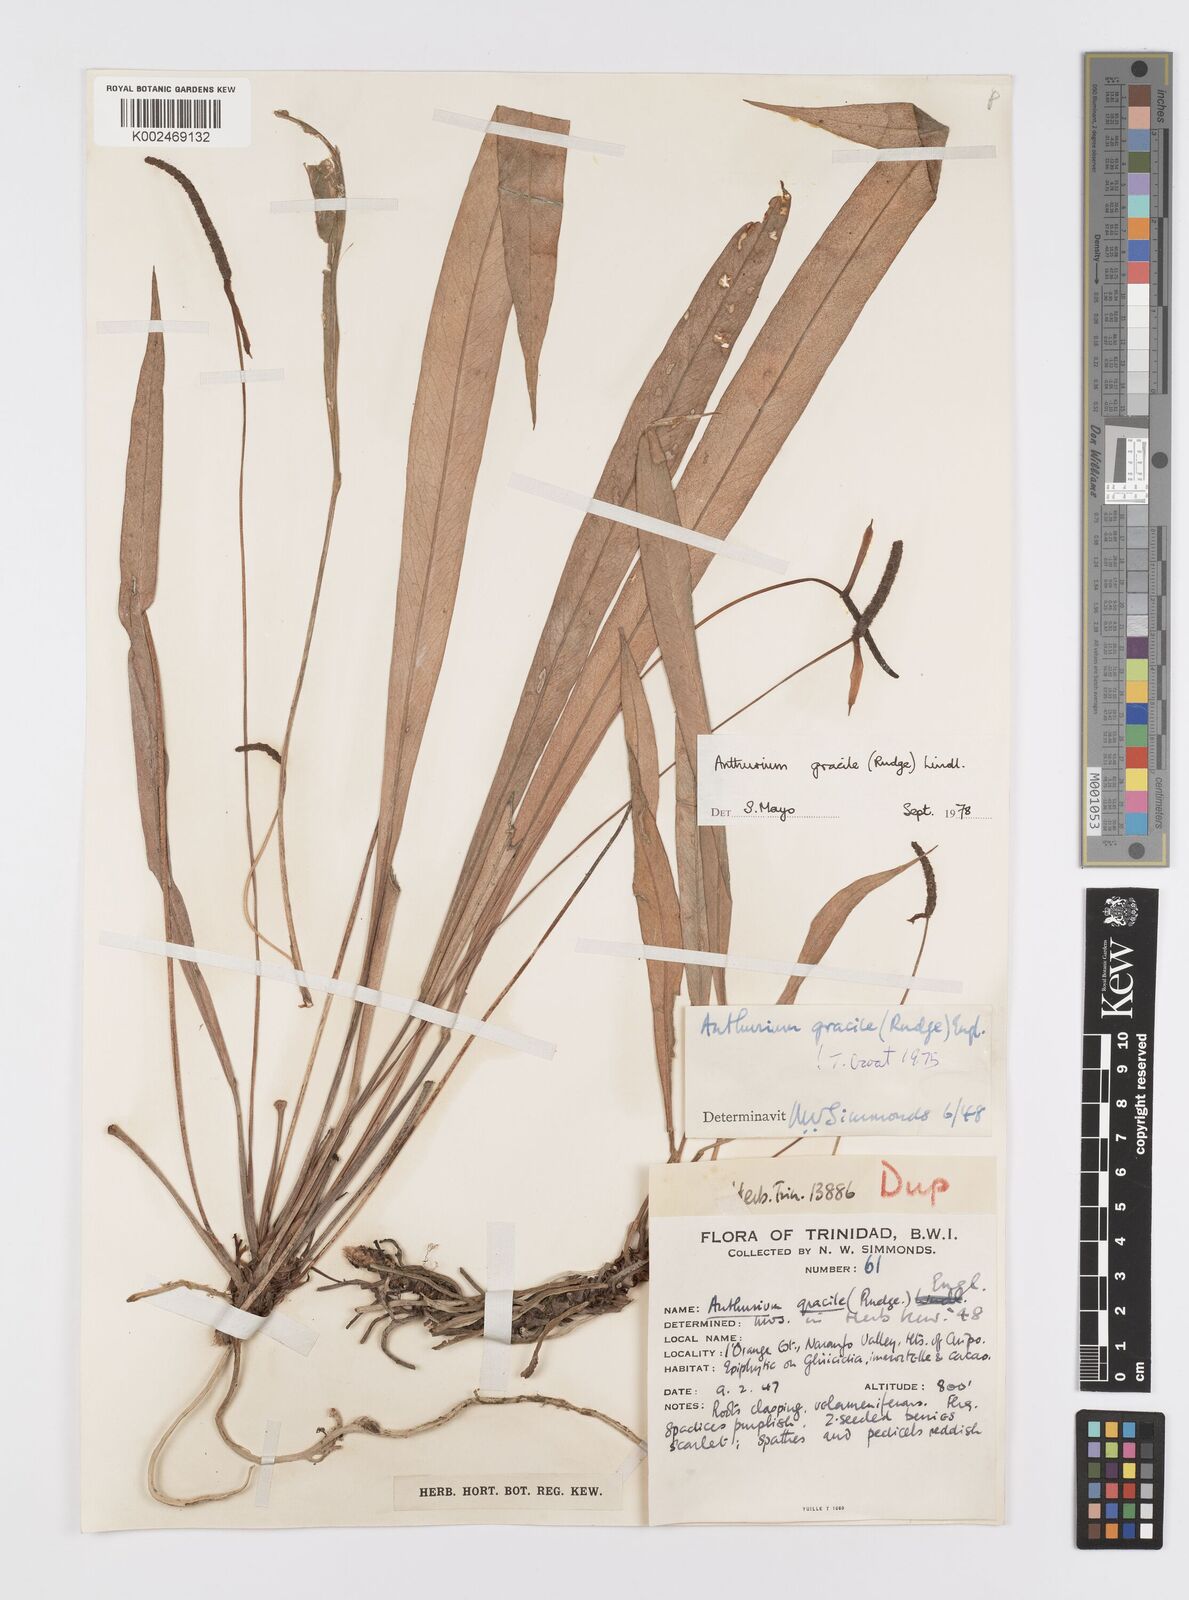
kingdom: Plantae
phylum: Tracheophyta
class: Liliopsida
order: Alismatales
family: Araceae
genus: Anthurium
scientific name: Anthurium gracile
